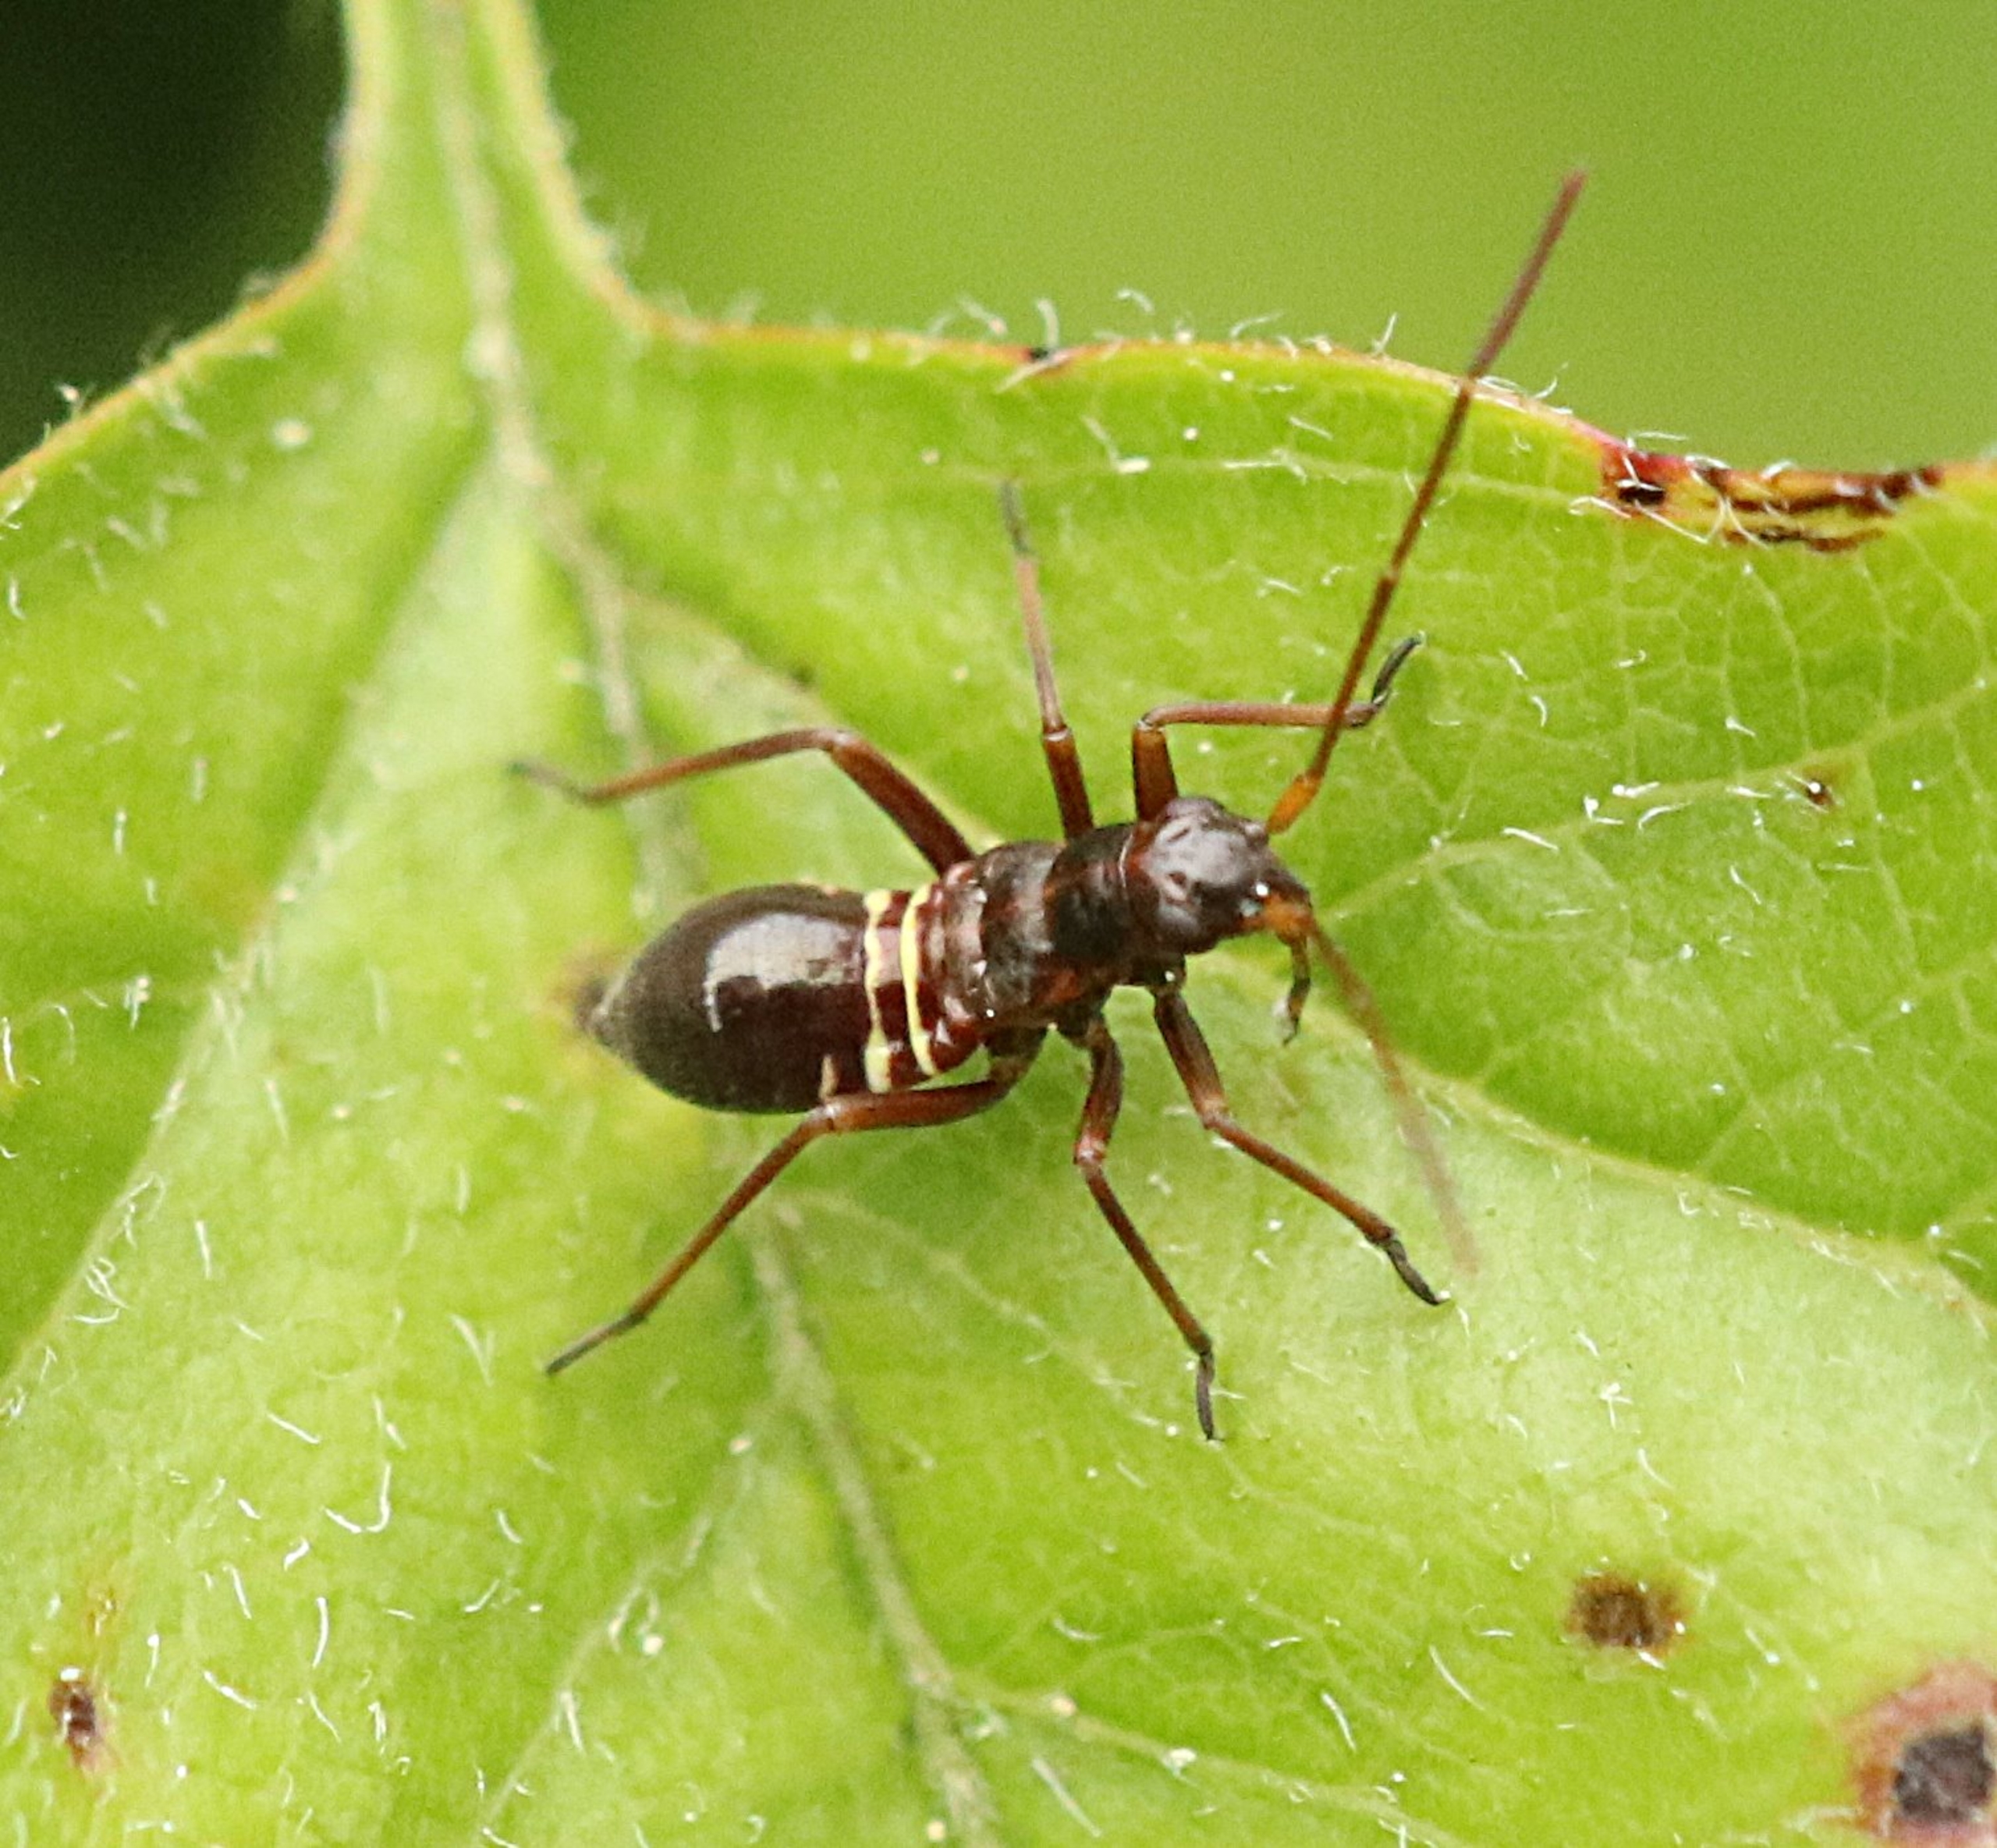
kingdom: Animalia
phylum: Arthropoda
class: Insecta
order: Hemiptera
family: Miridae
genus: Miris
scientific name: Miris striatus
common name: Gulstribet egetæge
